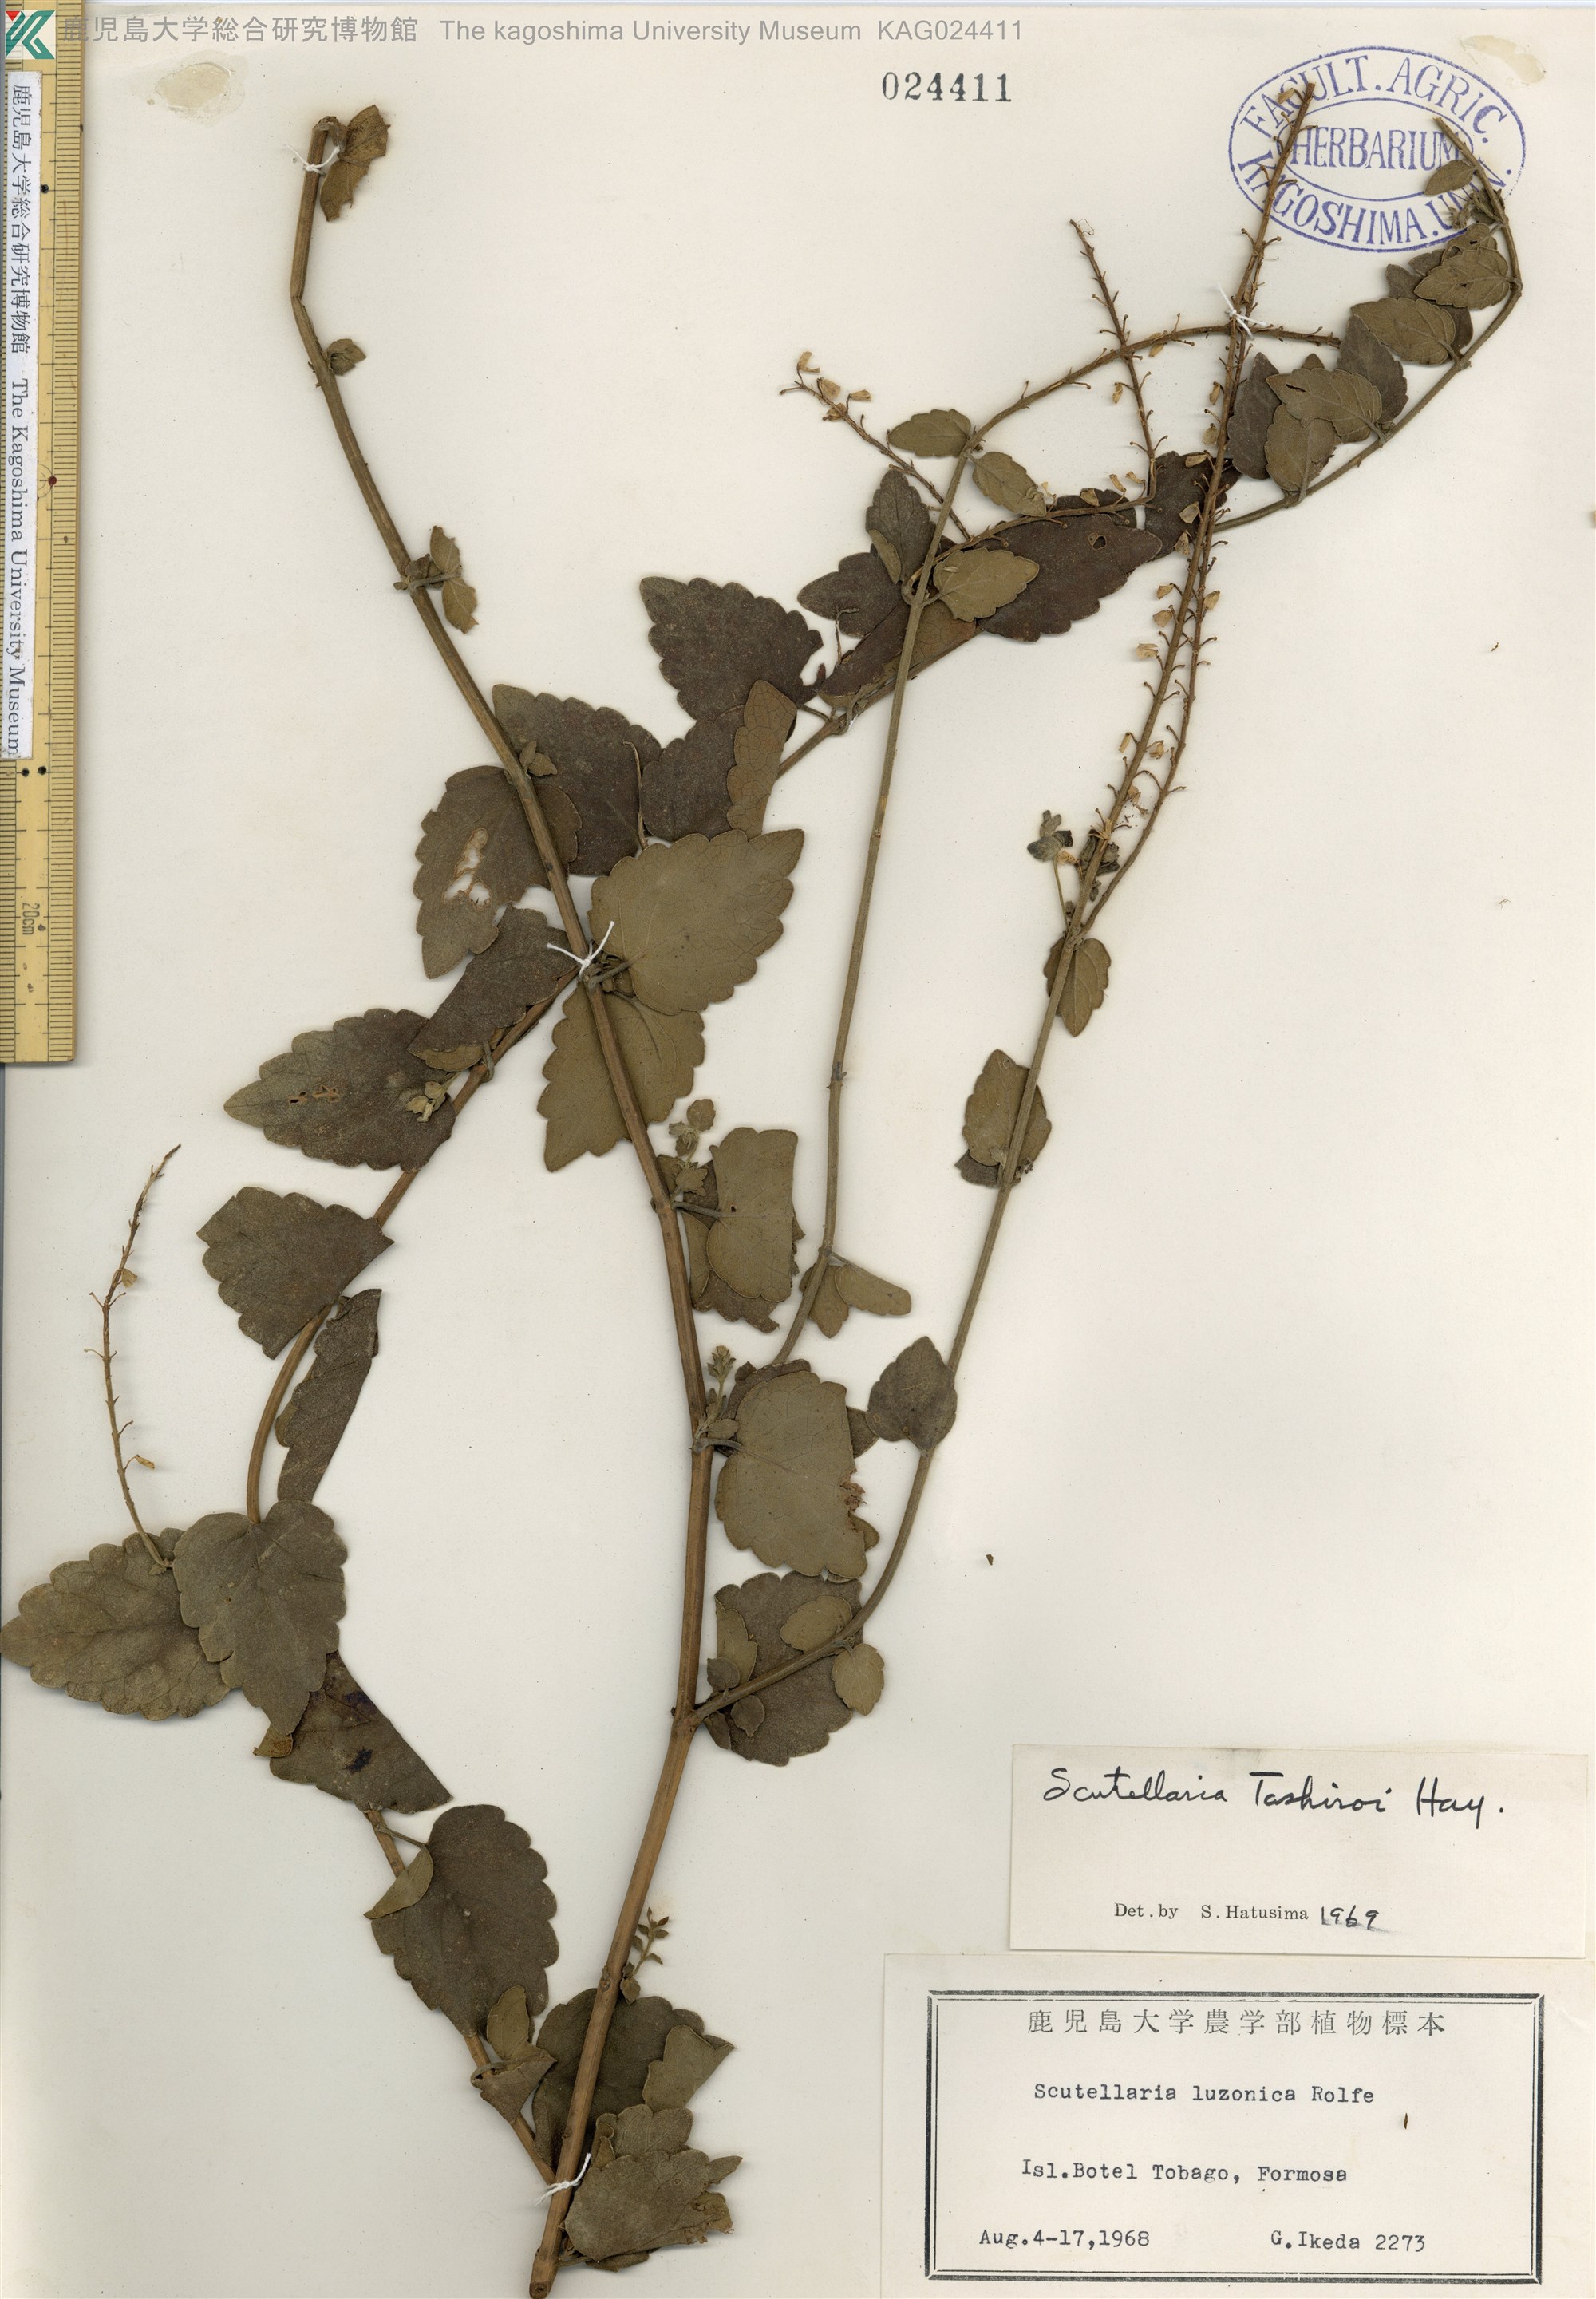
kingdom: Plantae
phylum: Tracheophyta
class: Magnoliopsida
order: Lamiales
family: Lamiaceae
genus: Scutellaria
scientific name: Scutellaria indica
